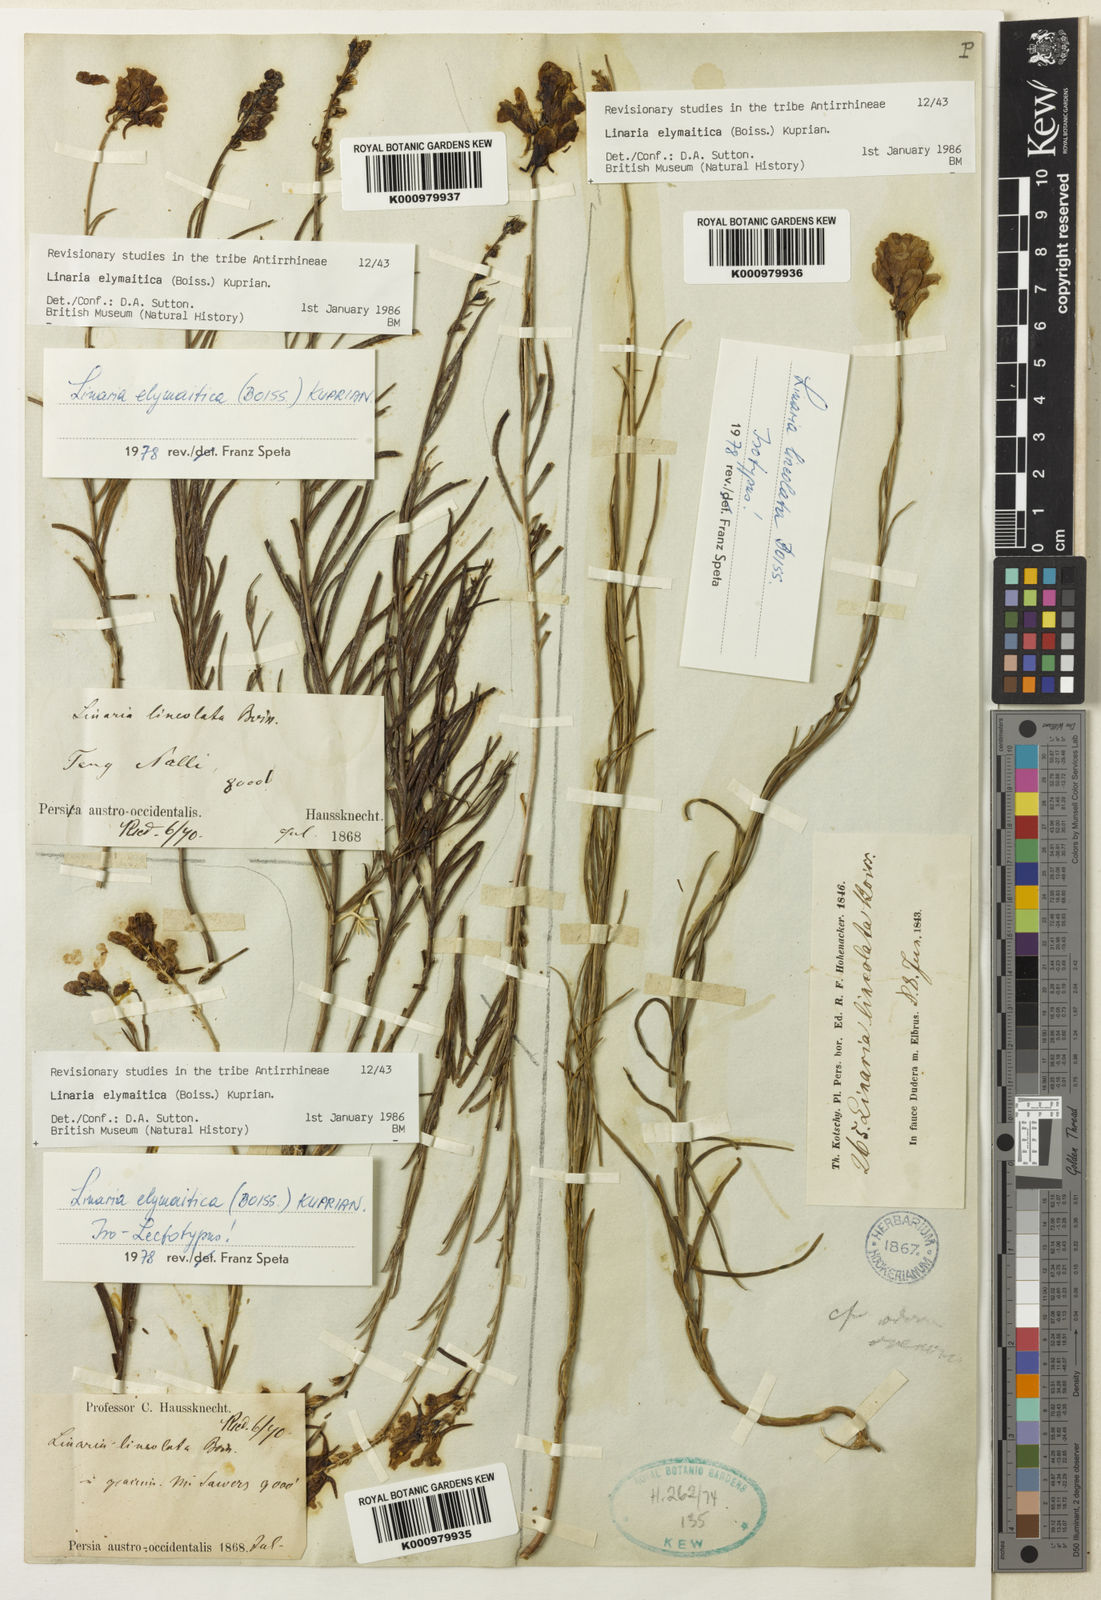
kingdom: Plantae
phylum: Tracheophyta
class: Magnoliopsida
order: Lamiales
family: Plantaginaceae
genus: Linaria
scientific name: Linaria elymaitica
